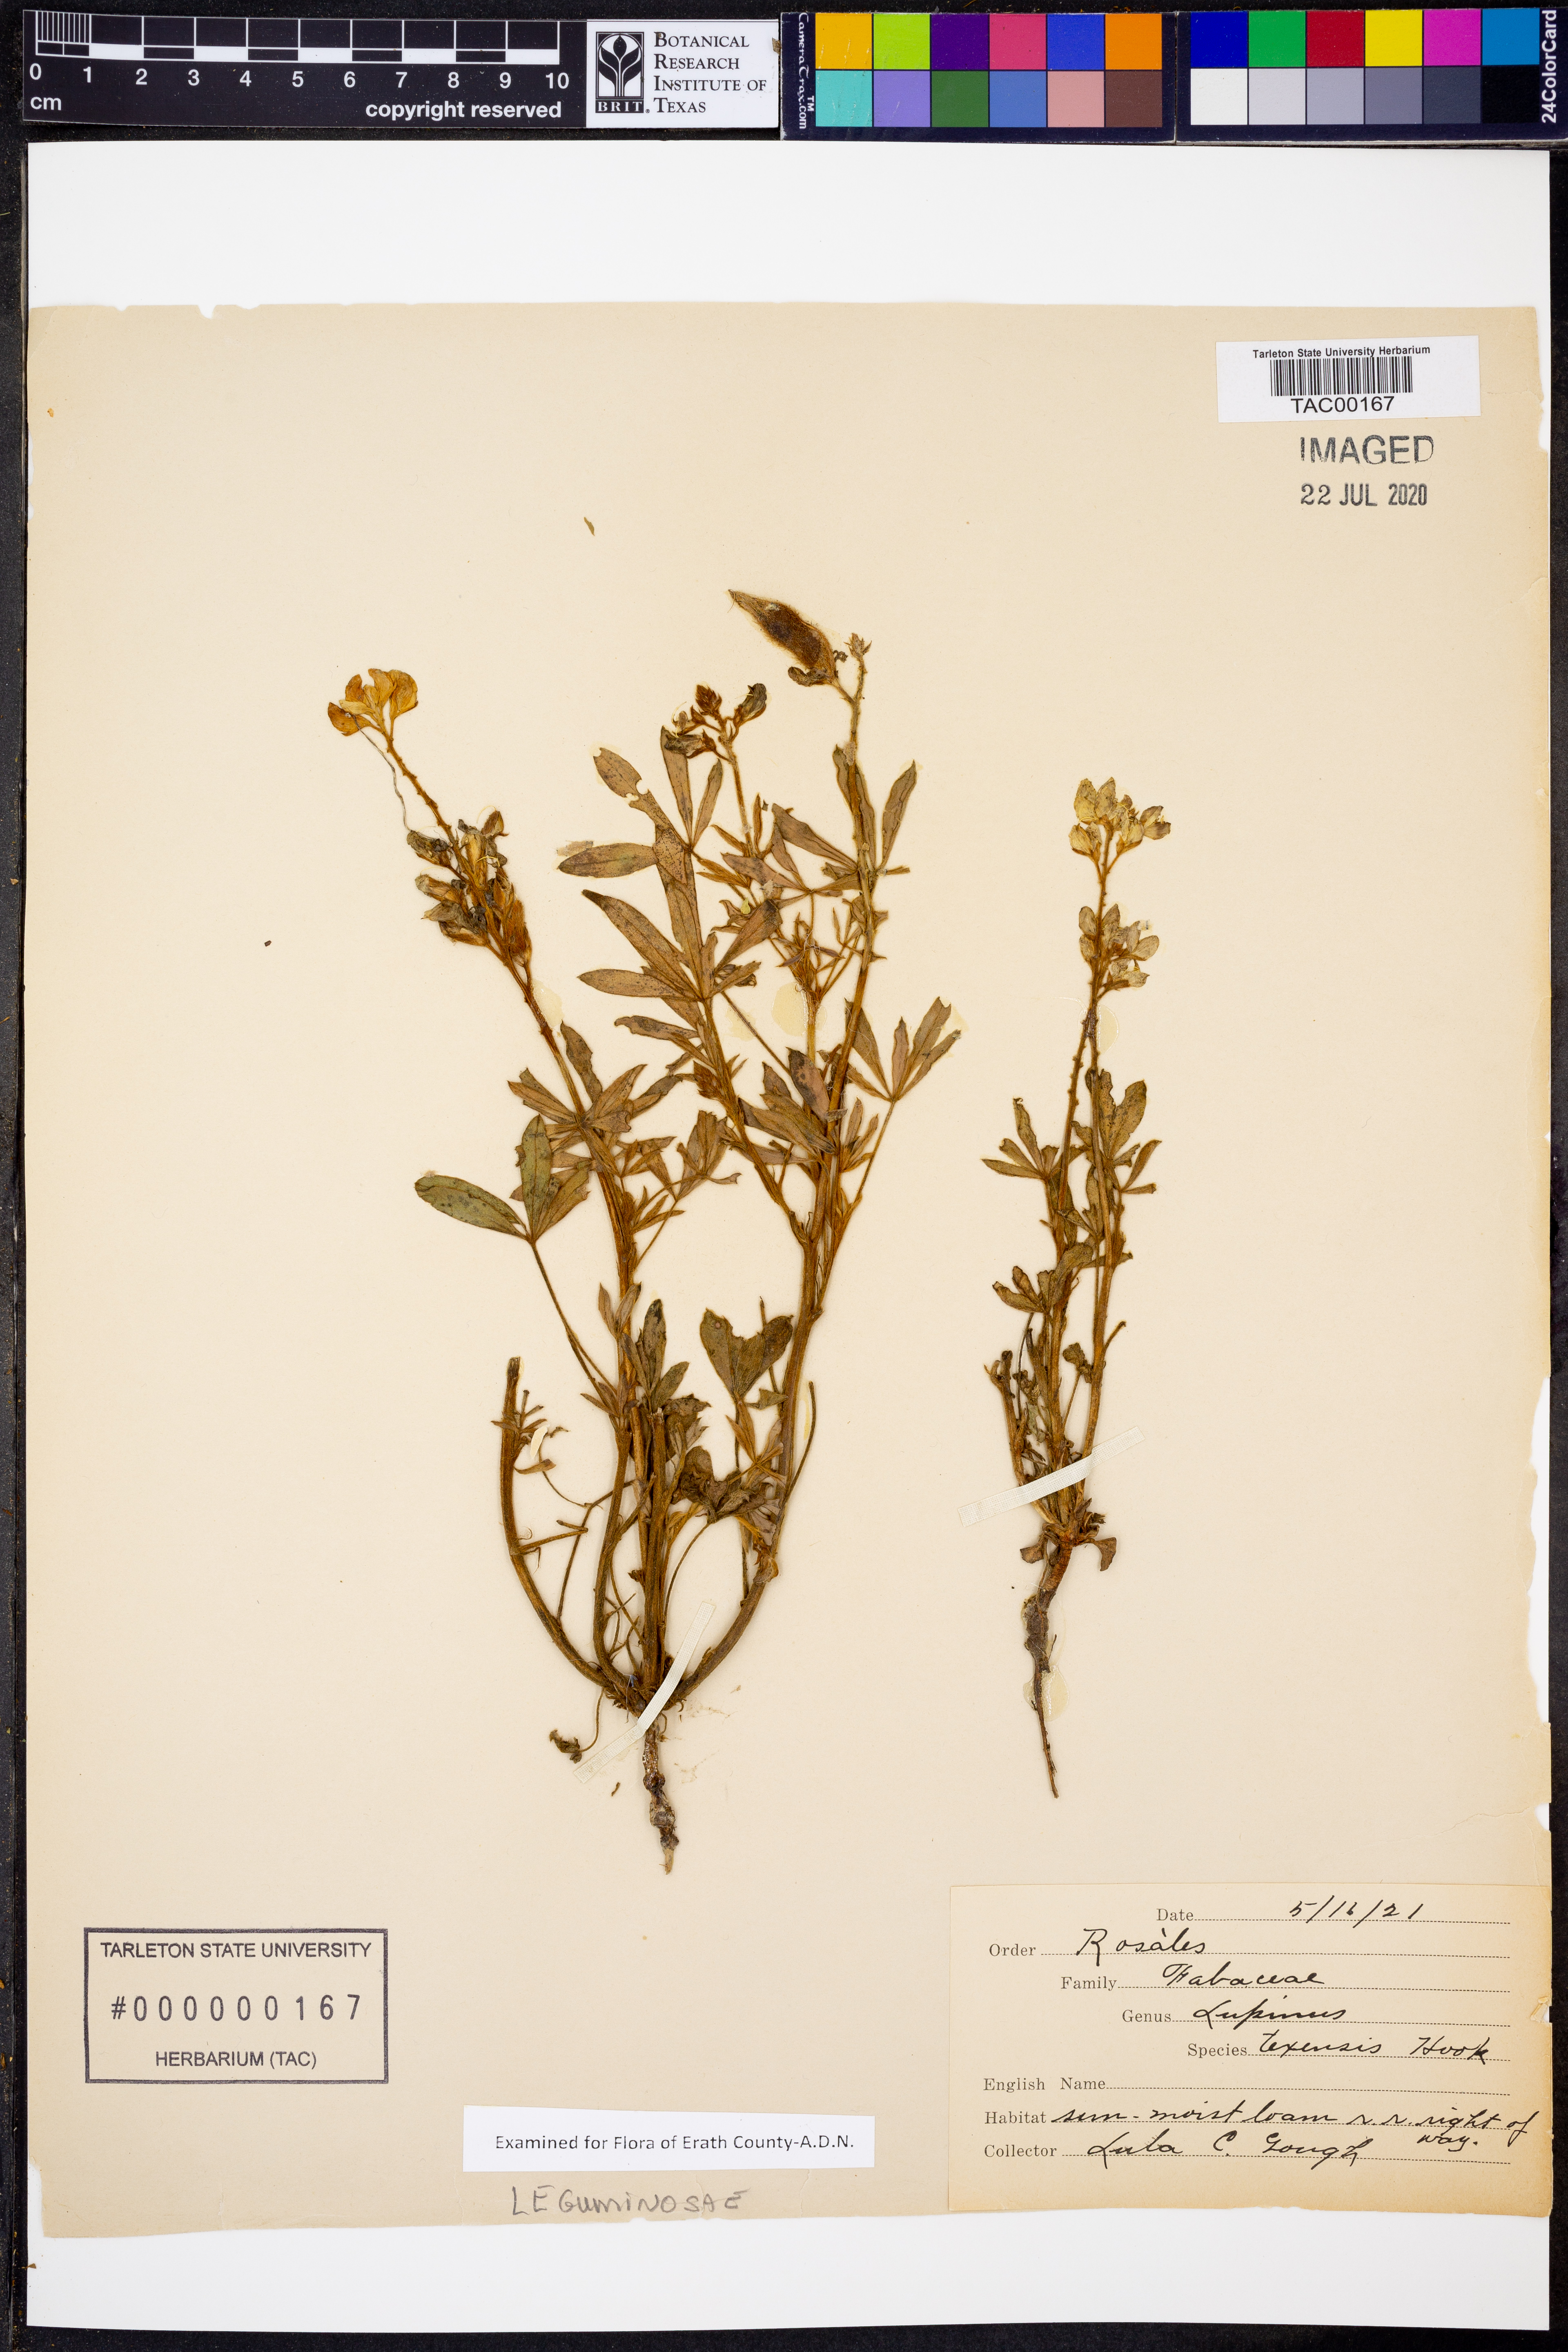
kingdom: Plantae
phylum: Tracheophyta
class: Magnoliopsida
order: Fabales
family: Fabaceae
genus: Lupinus
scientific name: Lupinus texensis
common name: Texas bluebonnet
